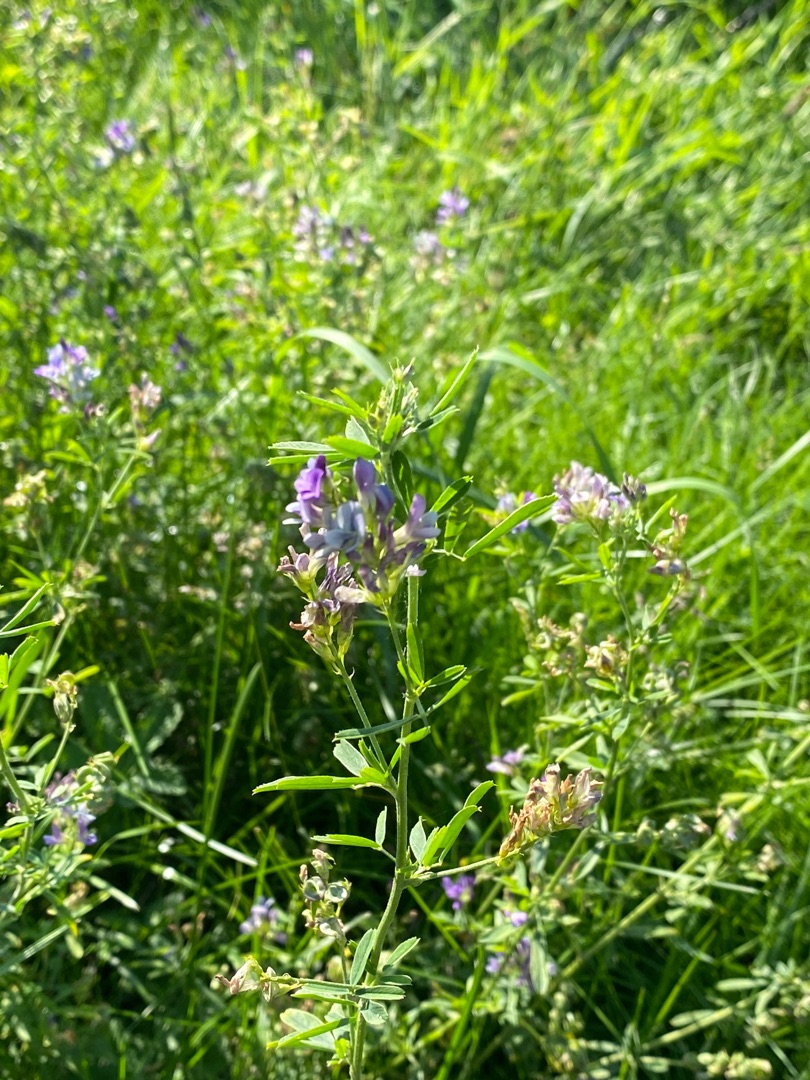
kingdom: Plantae
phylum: Tracheophyta
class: Magnoliopsida
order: Fabales
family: Fabaceae
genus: Medicago
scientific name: Medicago sativa
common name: Lucerne
